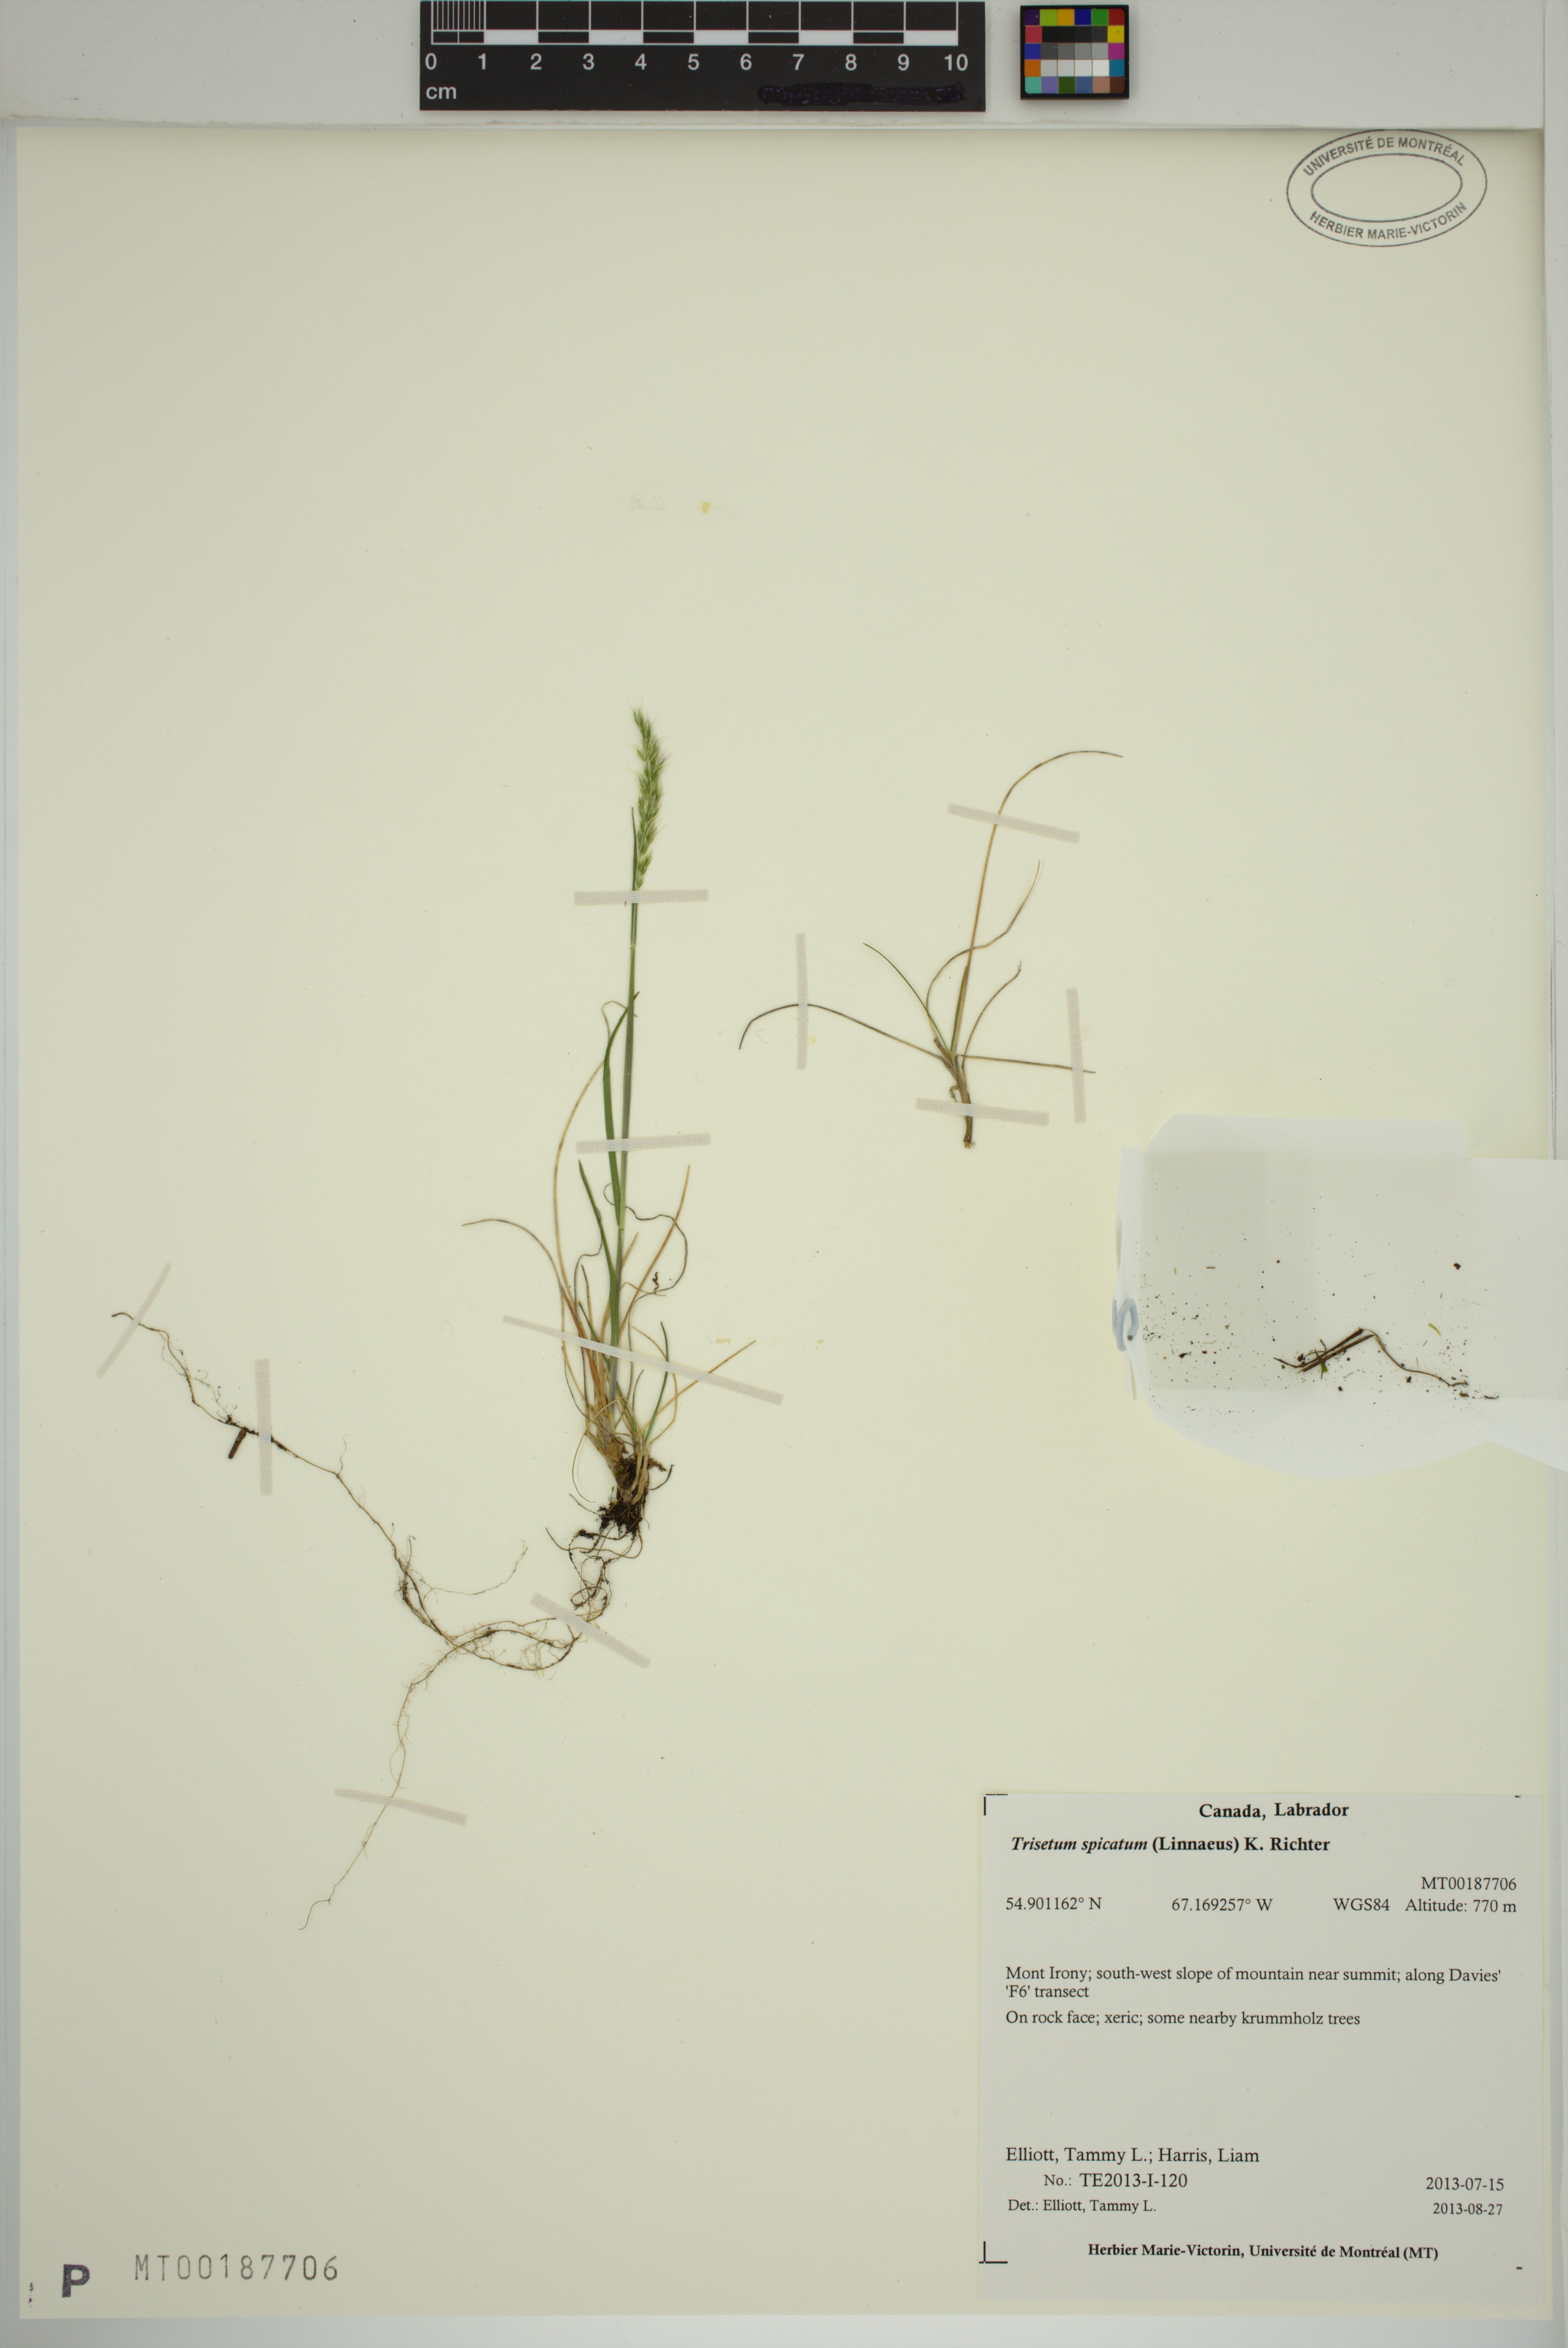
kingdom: Plantae
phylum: Tracheophyta
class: Liliopsida
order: Poales
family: Poaceae
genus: Koeleria
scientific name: Koeleria spicata
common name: Mountain trisetum
